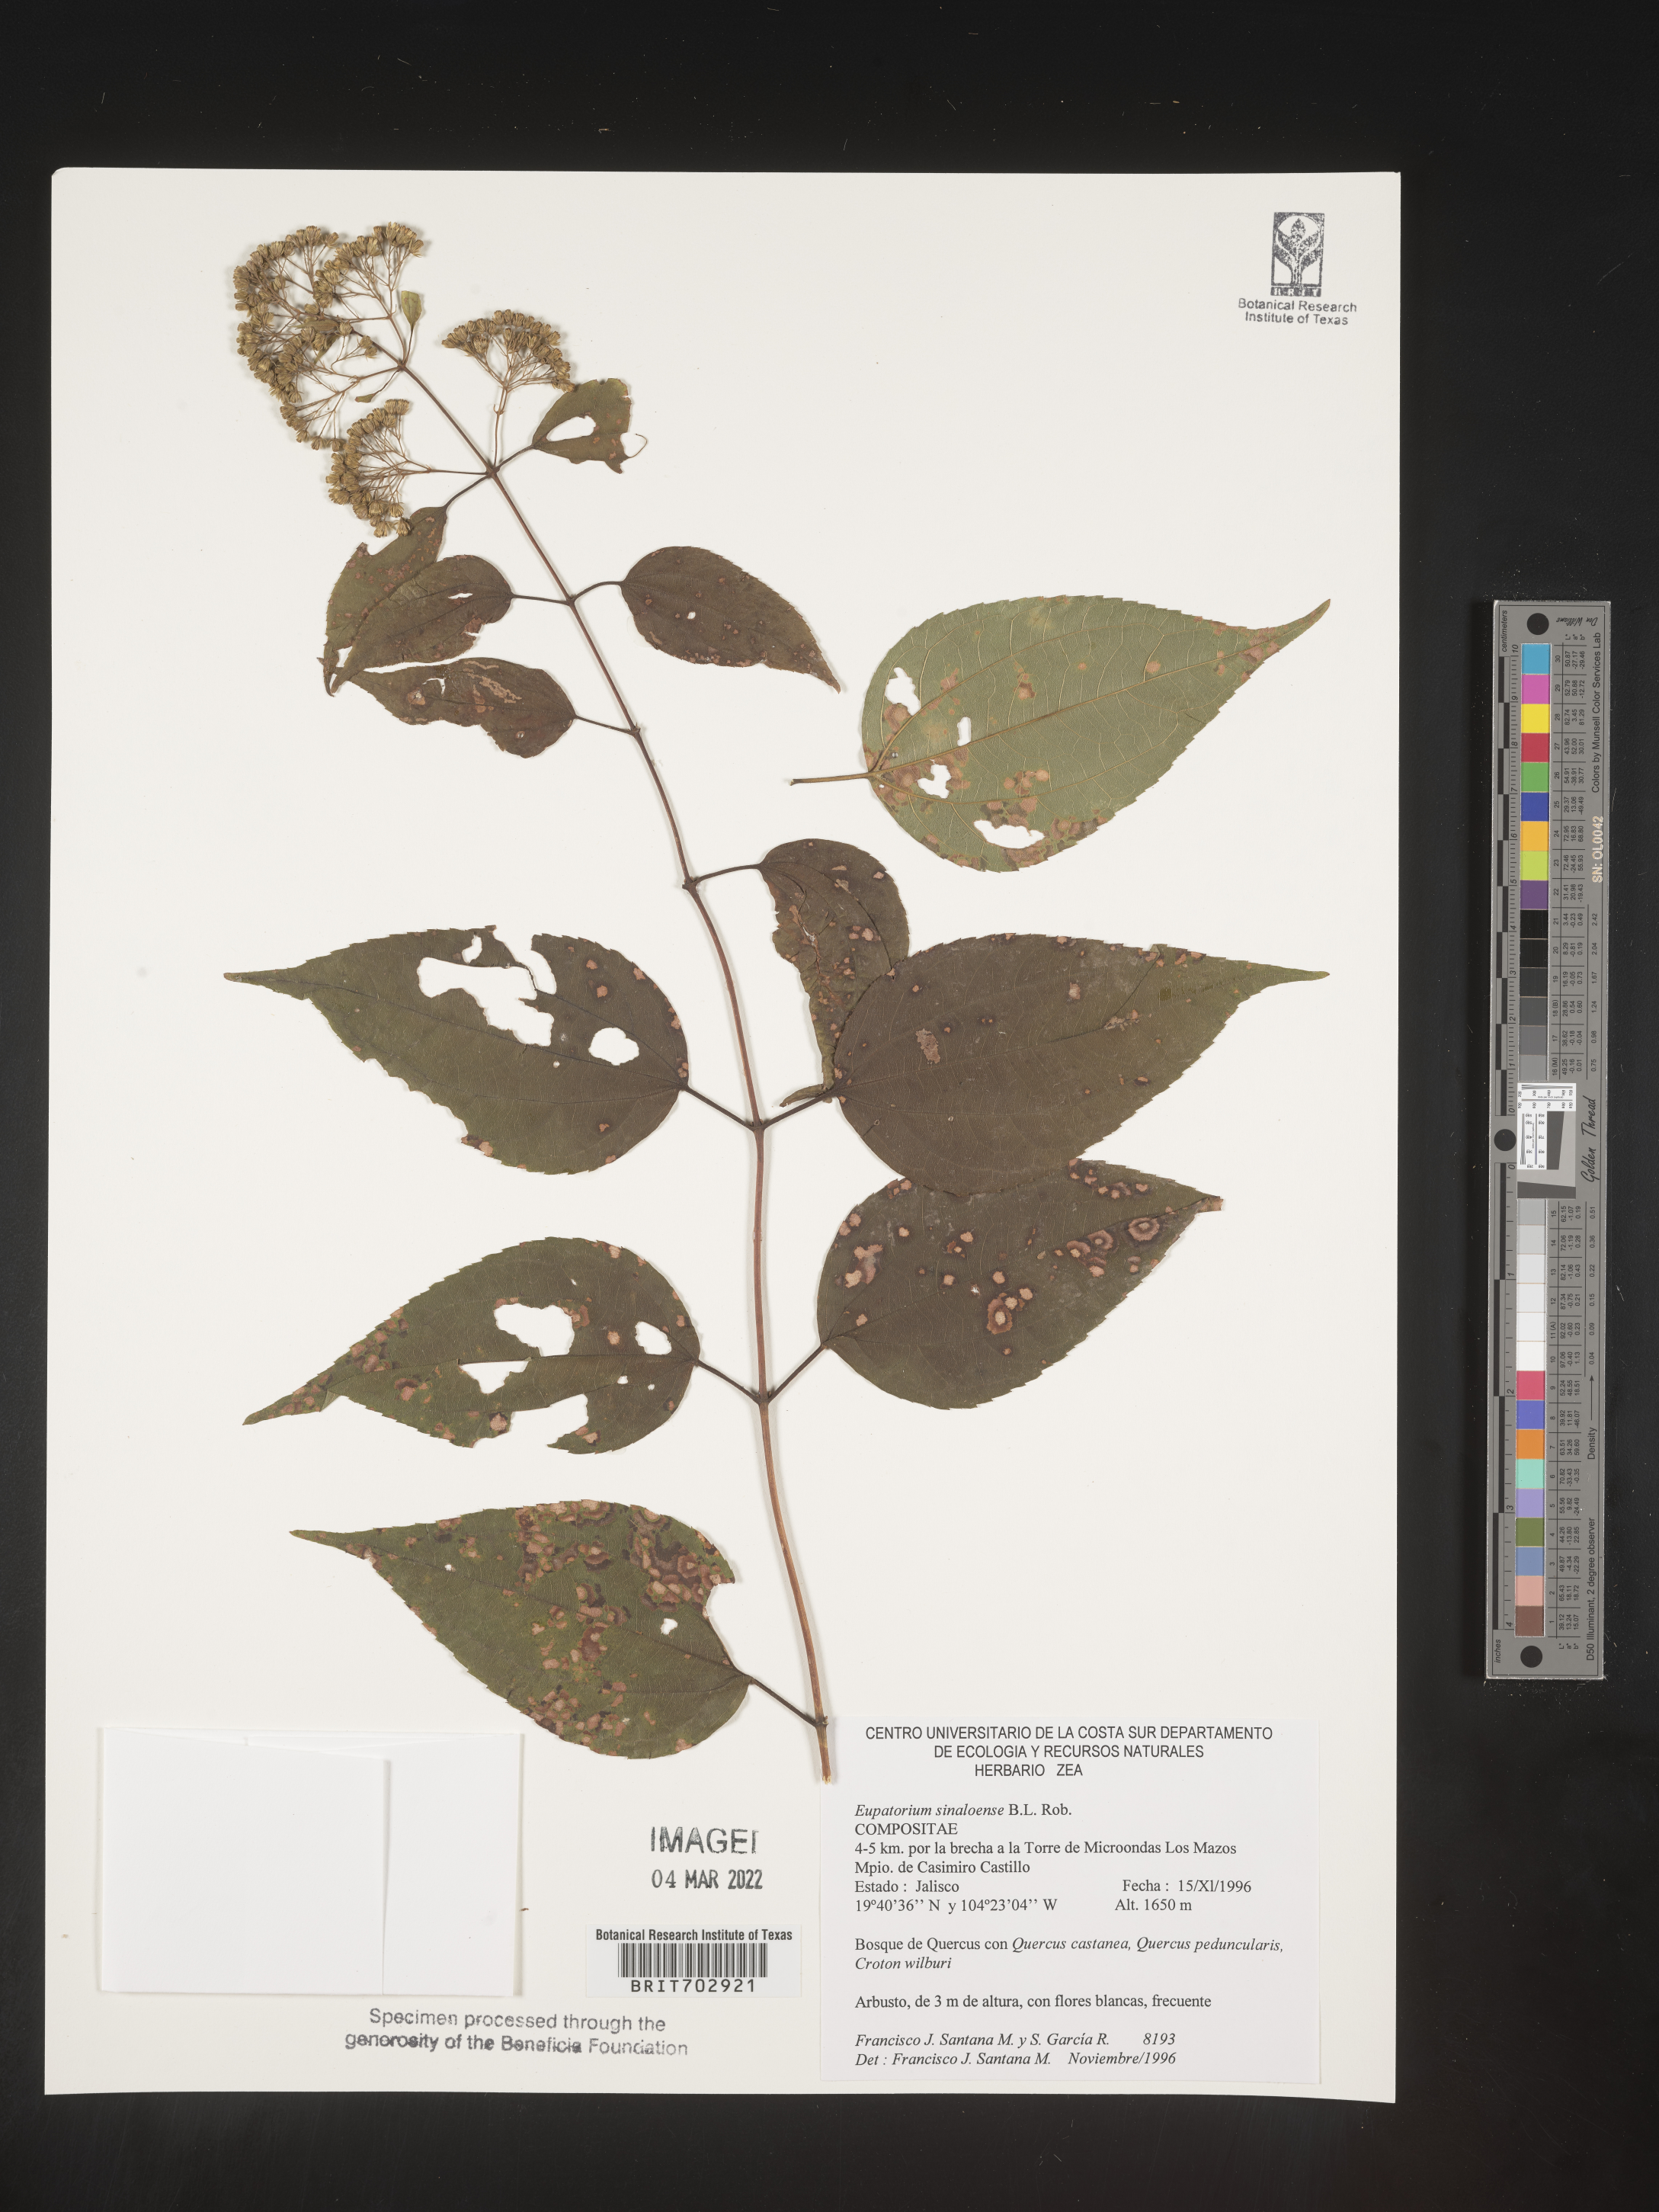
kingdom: Plantae
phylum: Tracheophyta
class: Magnoliopsida
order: Asterales
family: Asteraceae
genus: Eupatorium
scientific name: Eupatorium
